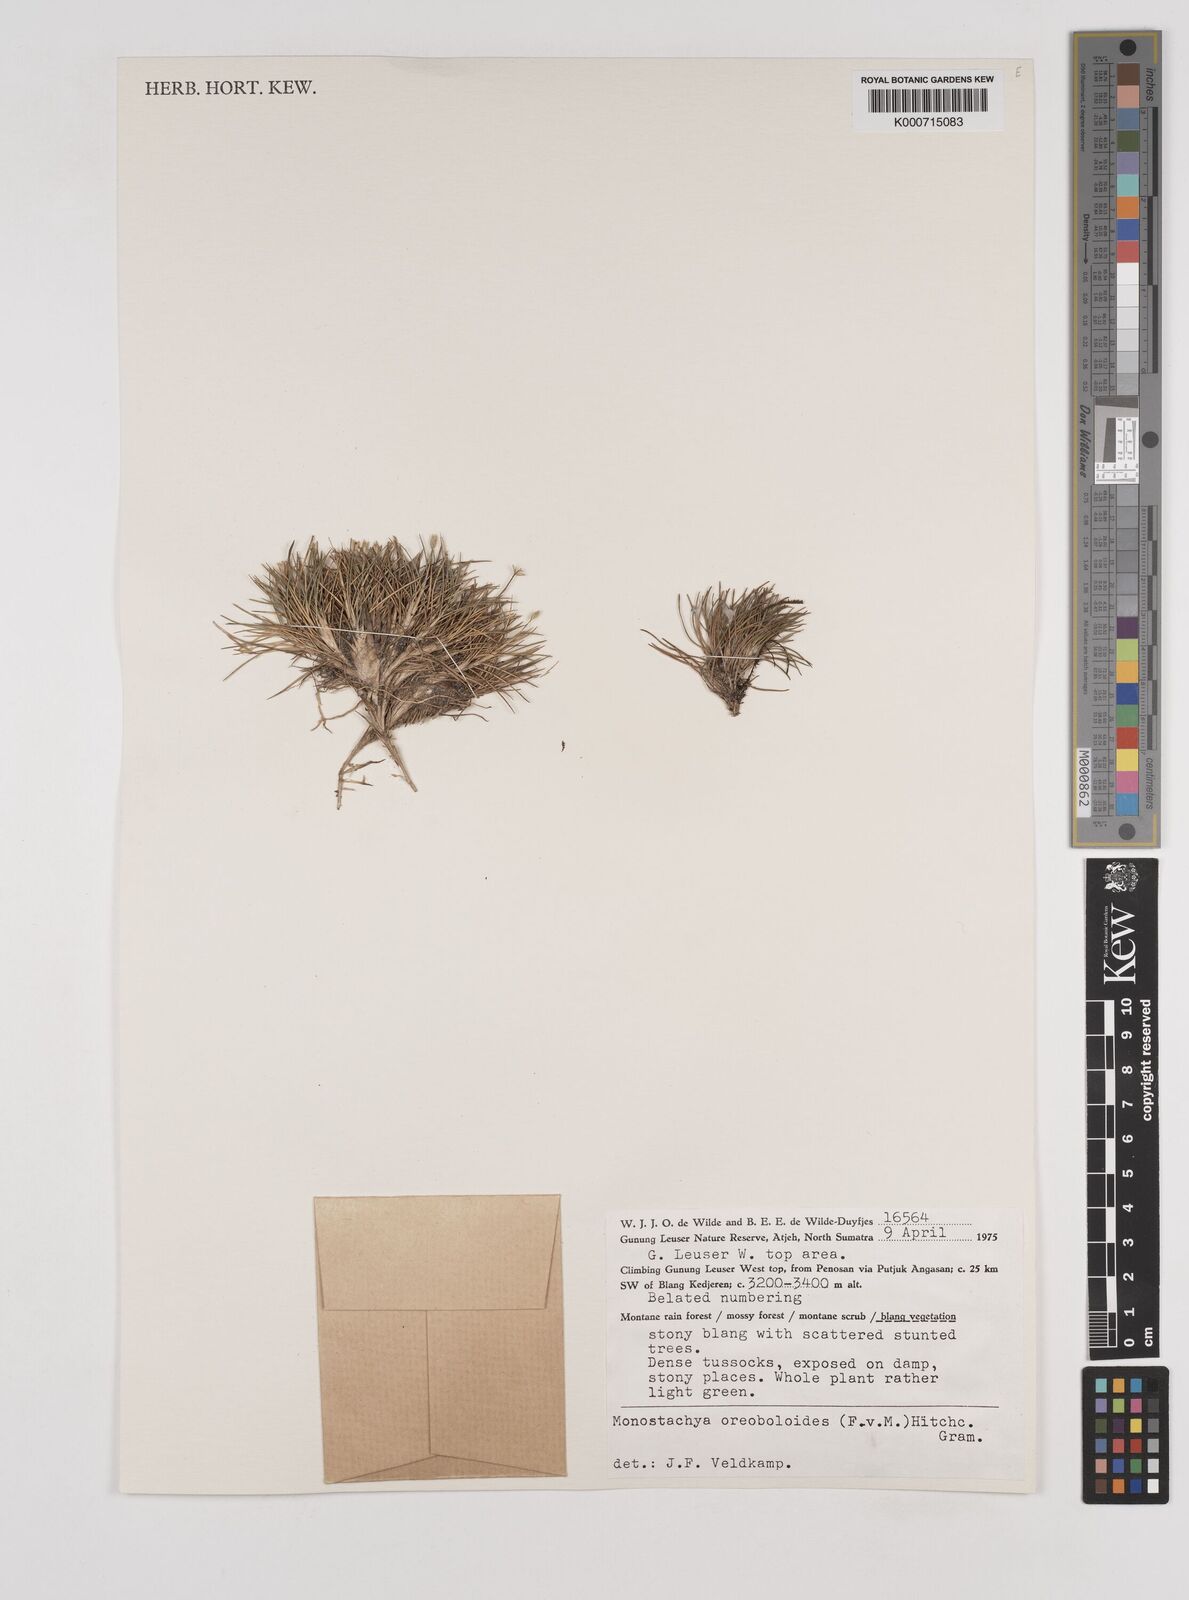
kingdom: Plantae
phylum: Tracheophyta
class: Liliopsida
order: Poales
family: Poaceae
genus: Rytidosperma
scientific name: Rytidosperma oreoboloides
